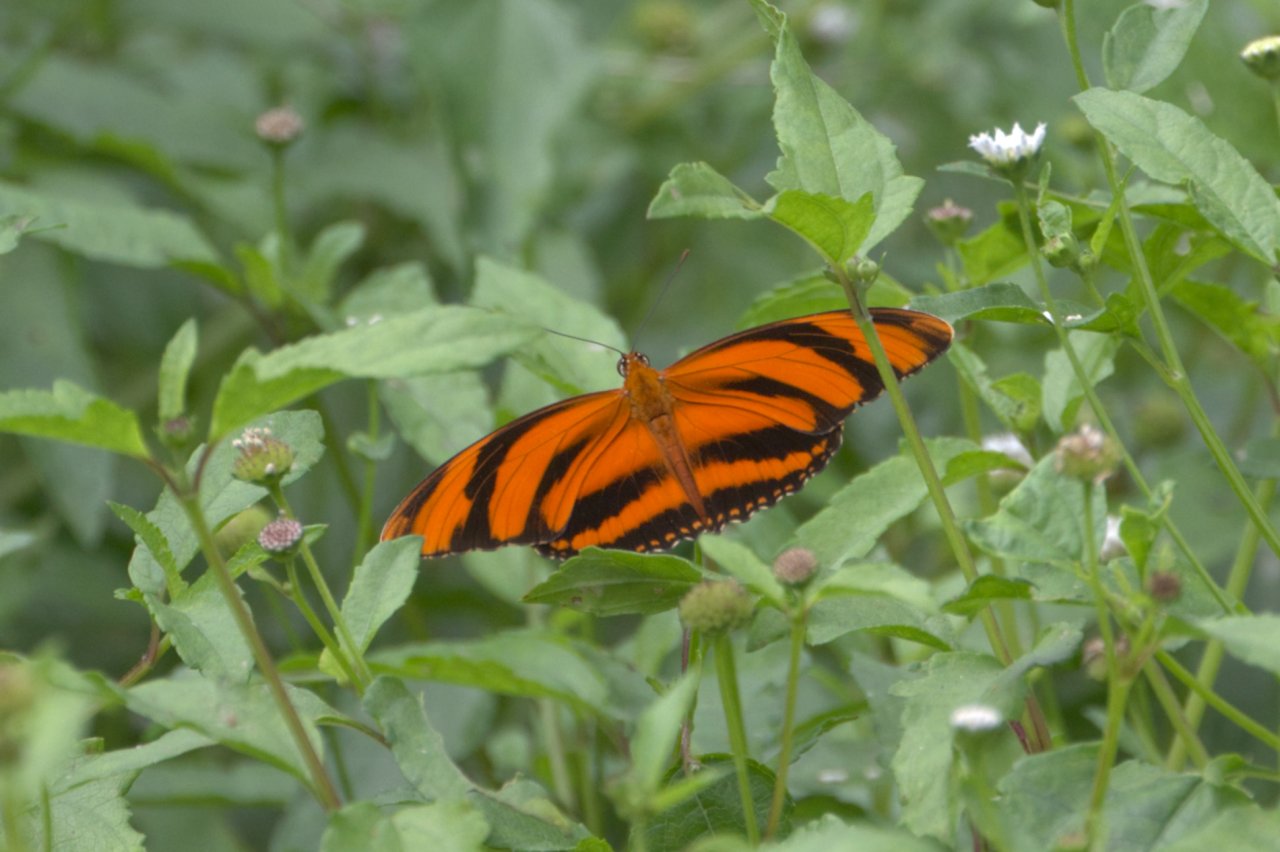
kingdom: Animalia
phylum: Arthropoda
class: Insecta
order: Lepidoptera
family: Nymphalidae
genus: Dryadula
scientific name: Dryadula phaetusa
